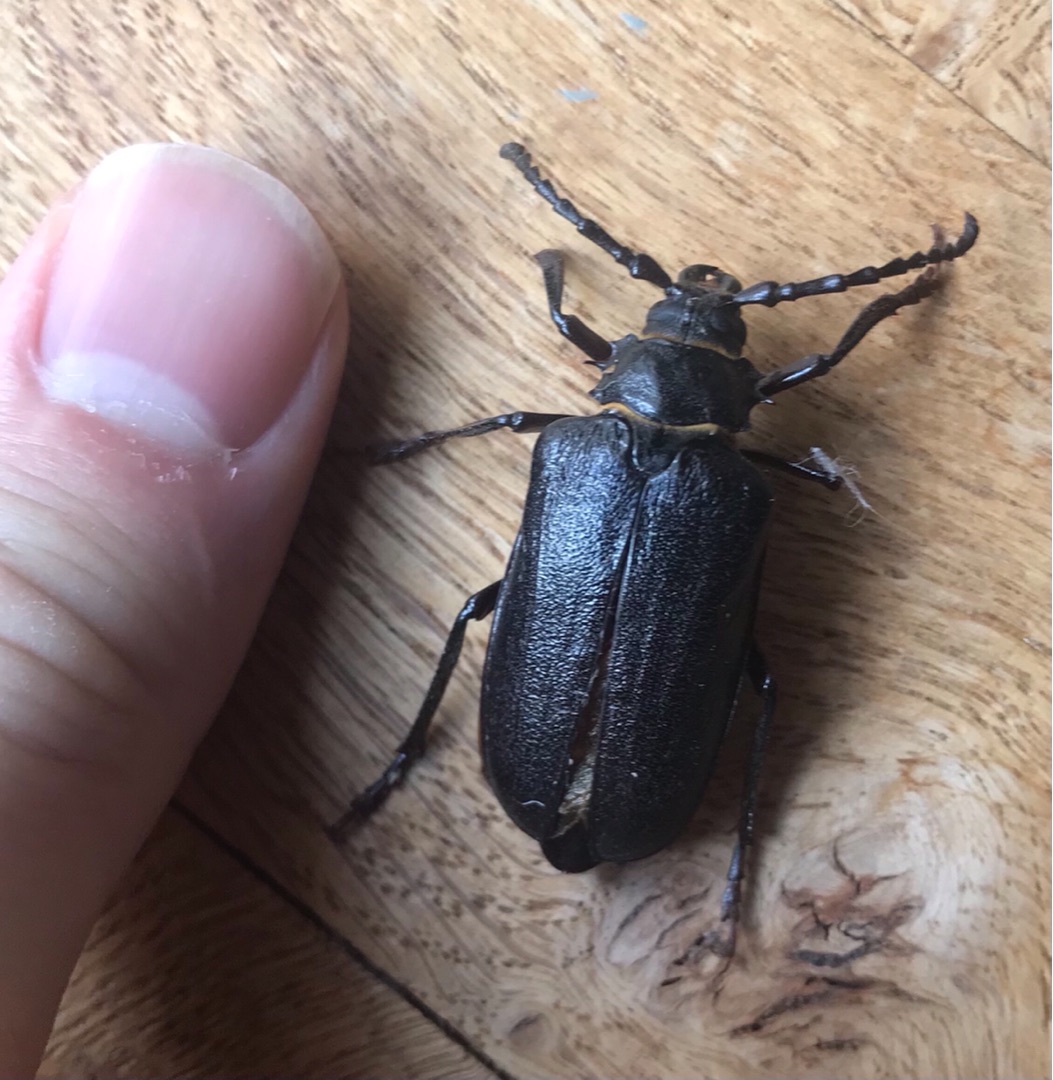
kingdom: Animalia
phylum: Arthropoda
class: Insecta
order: Coleoptera
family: Cerambycidae
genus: Prionus
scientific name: Prionus coriarius
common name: Garver
